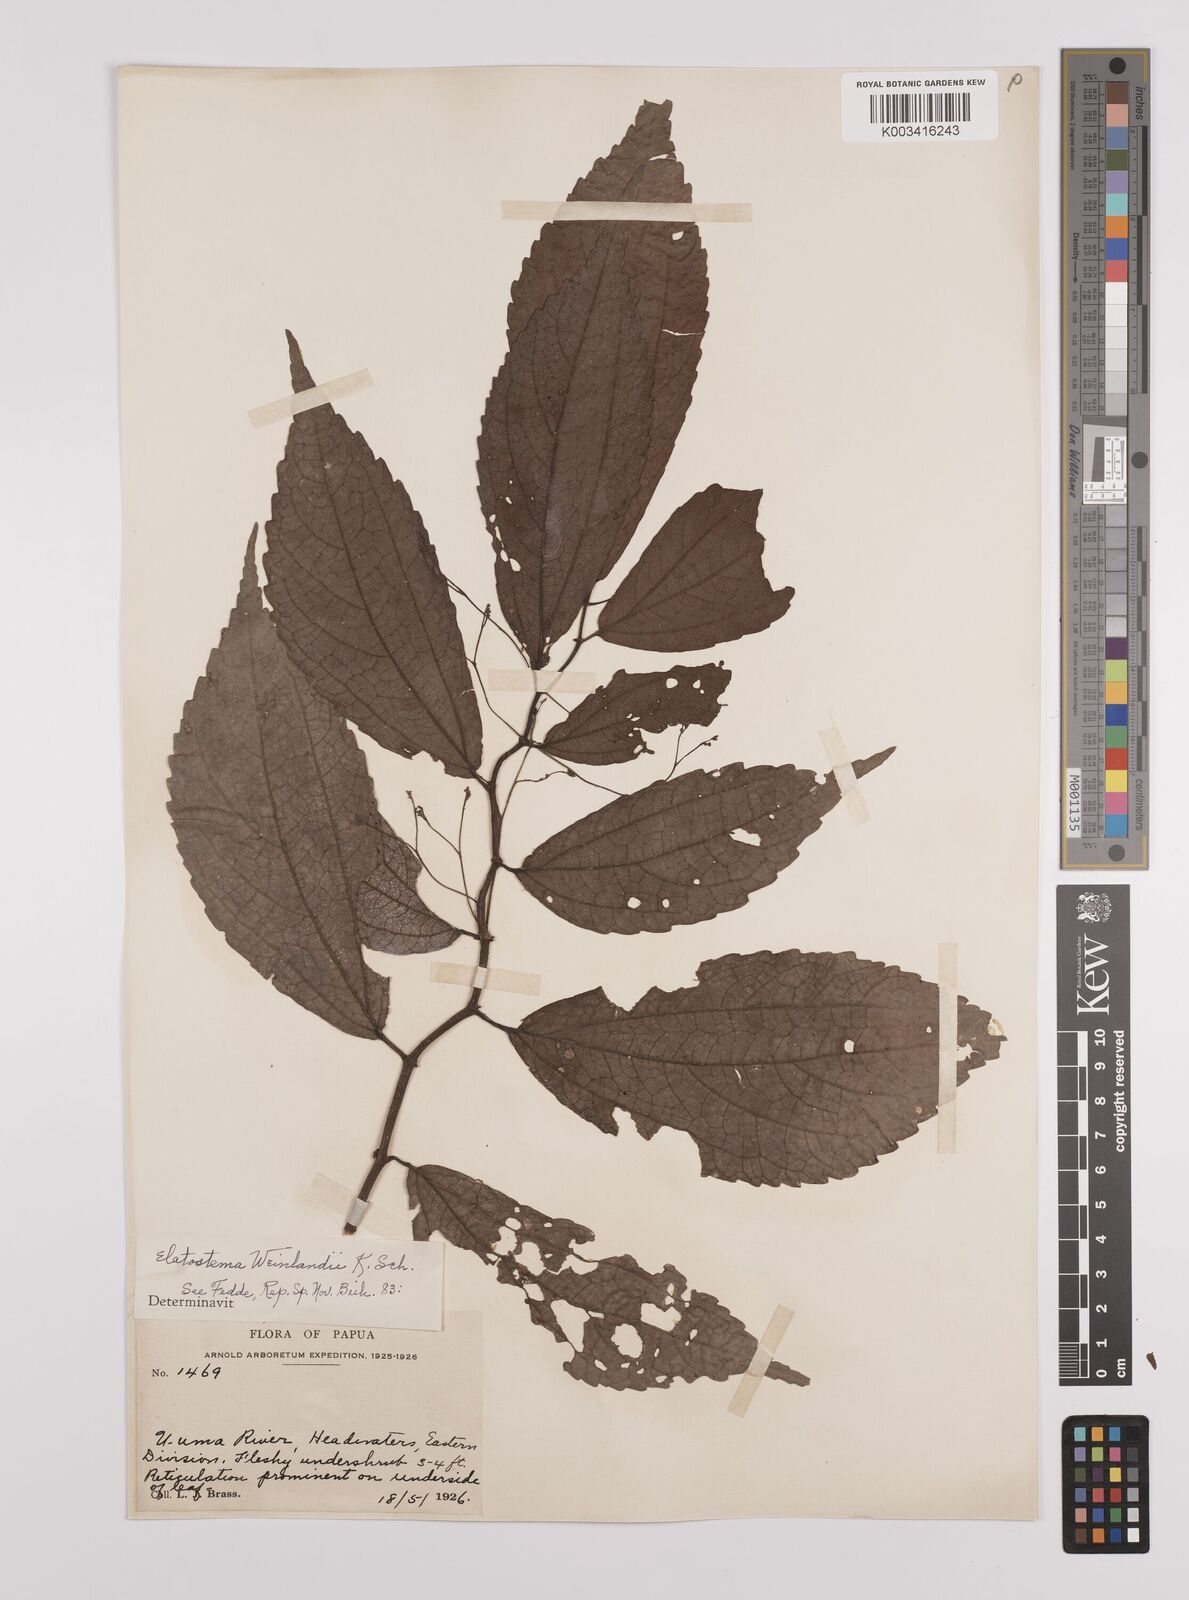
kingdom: Plantae
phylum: Tracheophyta
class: Magnoliopsida
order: Rosales
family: Urticaceae
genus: Elatostema
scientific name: Elatostema weinlandii
